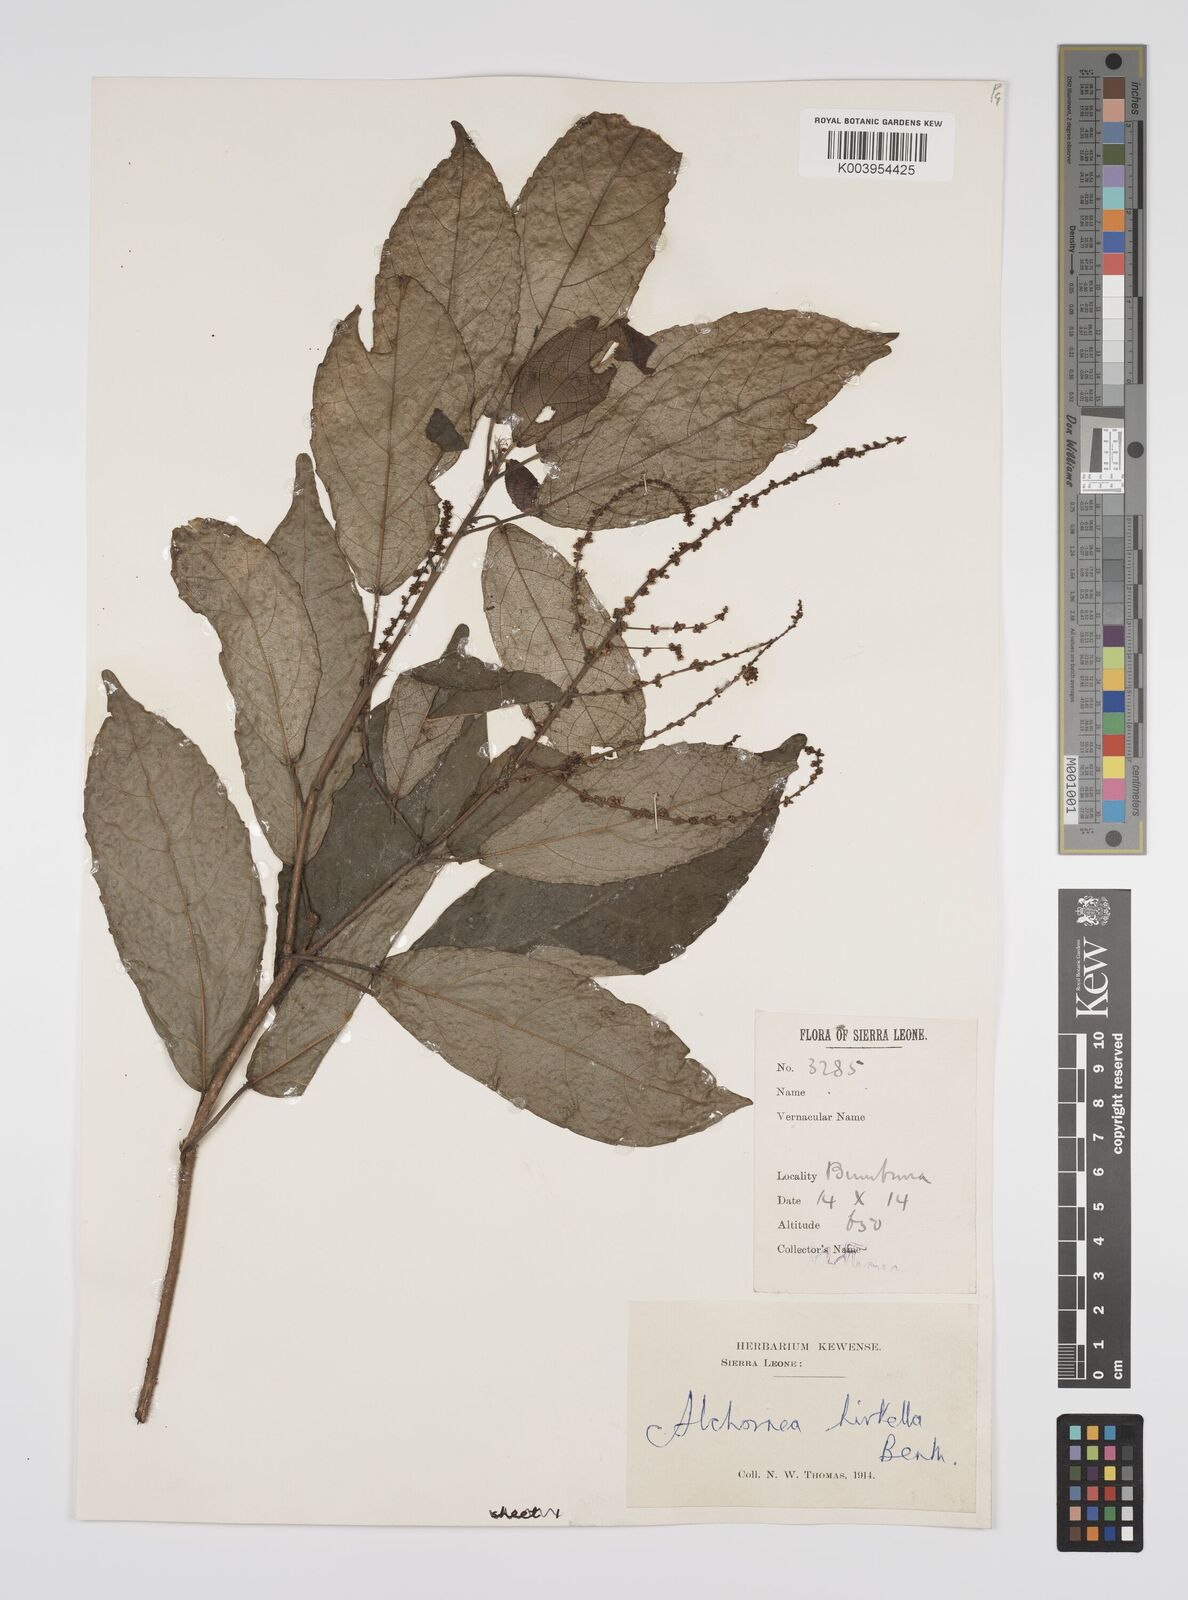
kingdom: Plantae
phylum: Tracheophyta
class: Magnoliopsida
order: Malpighiales
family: Euphorbiaceae
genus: Alchornea
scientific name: Alchornea hirtella
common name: Forest bead-string
